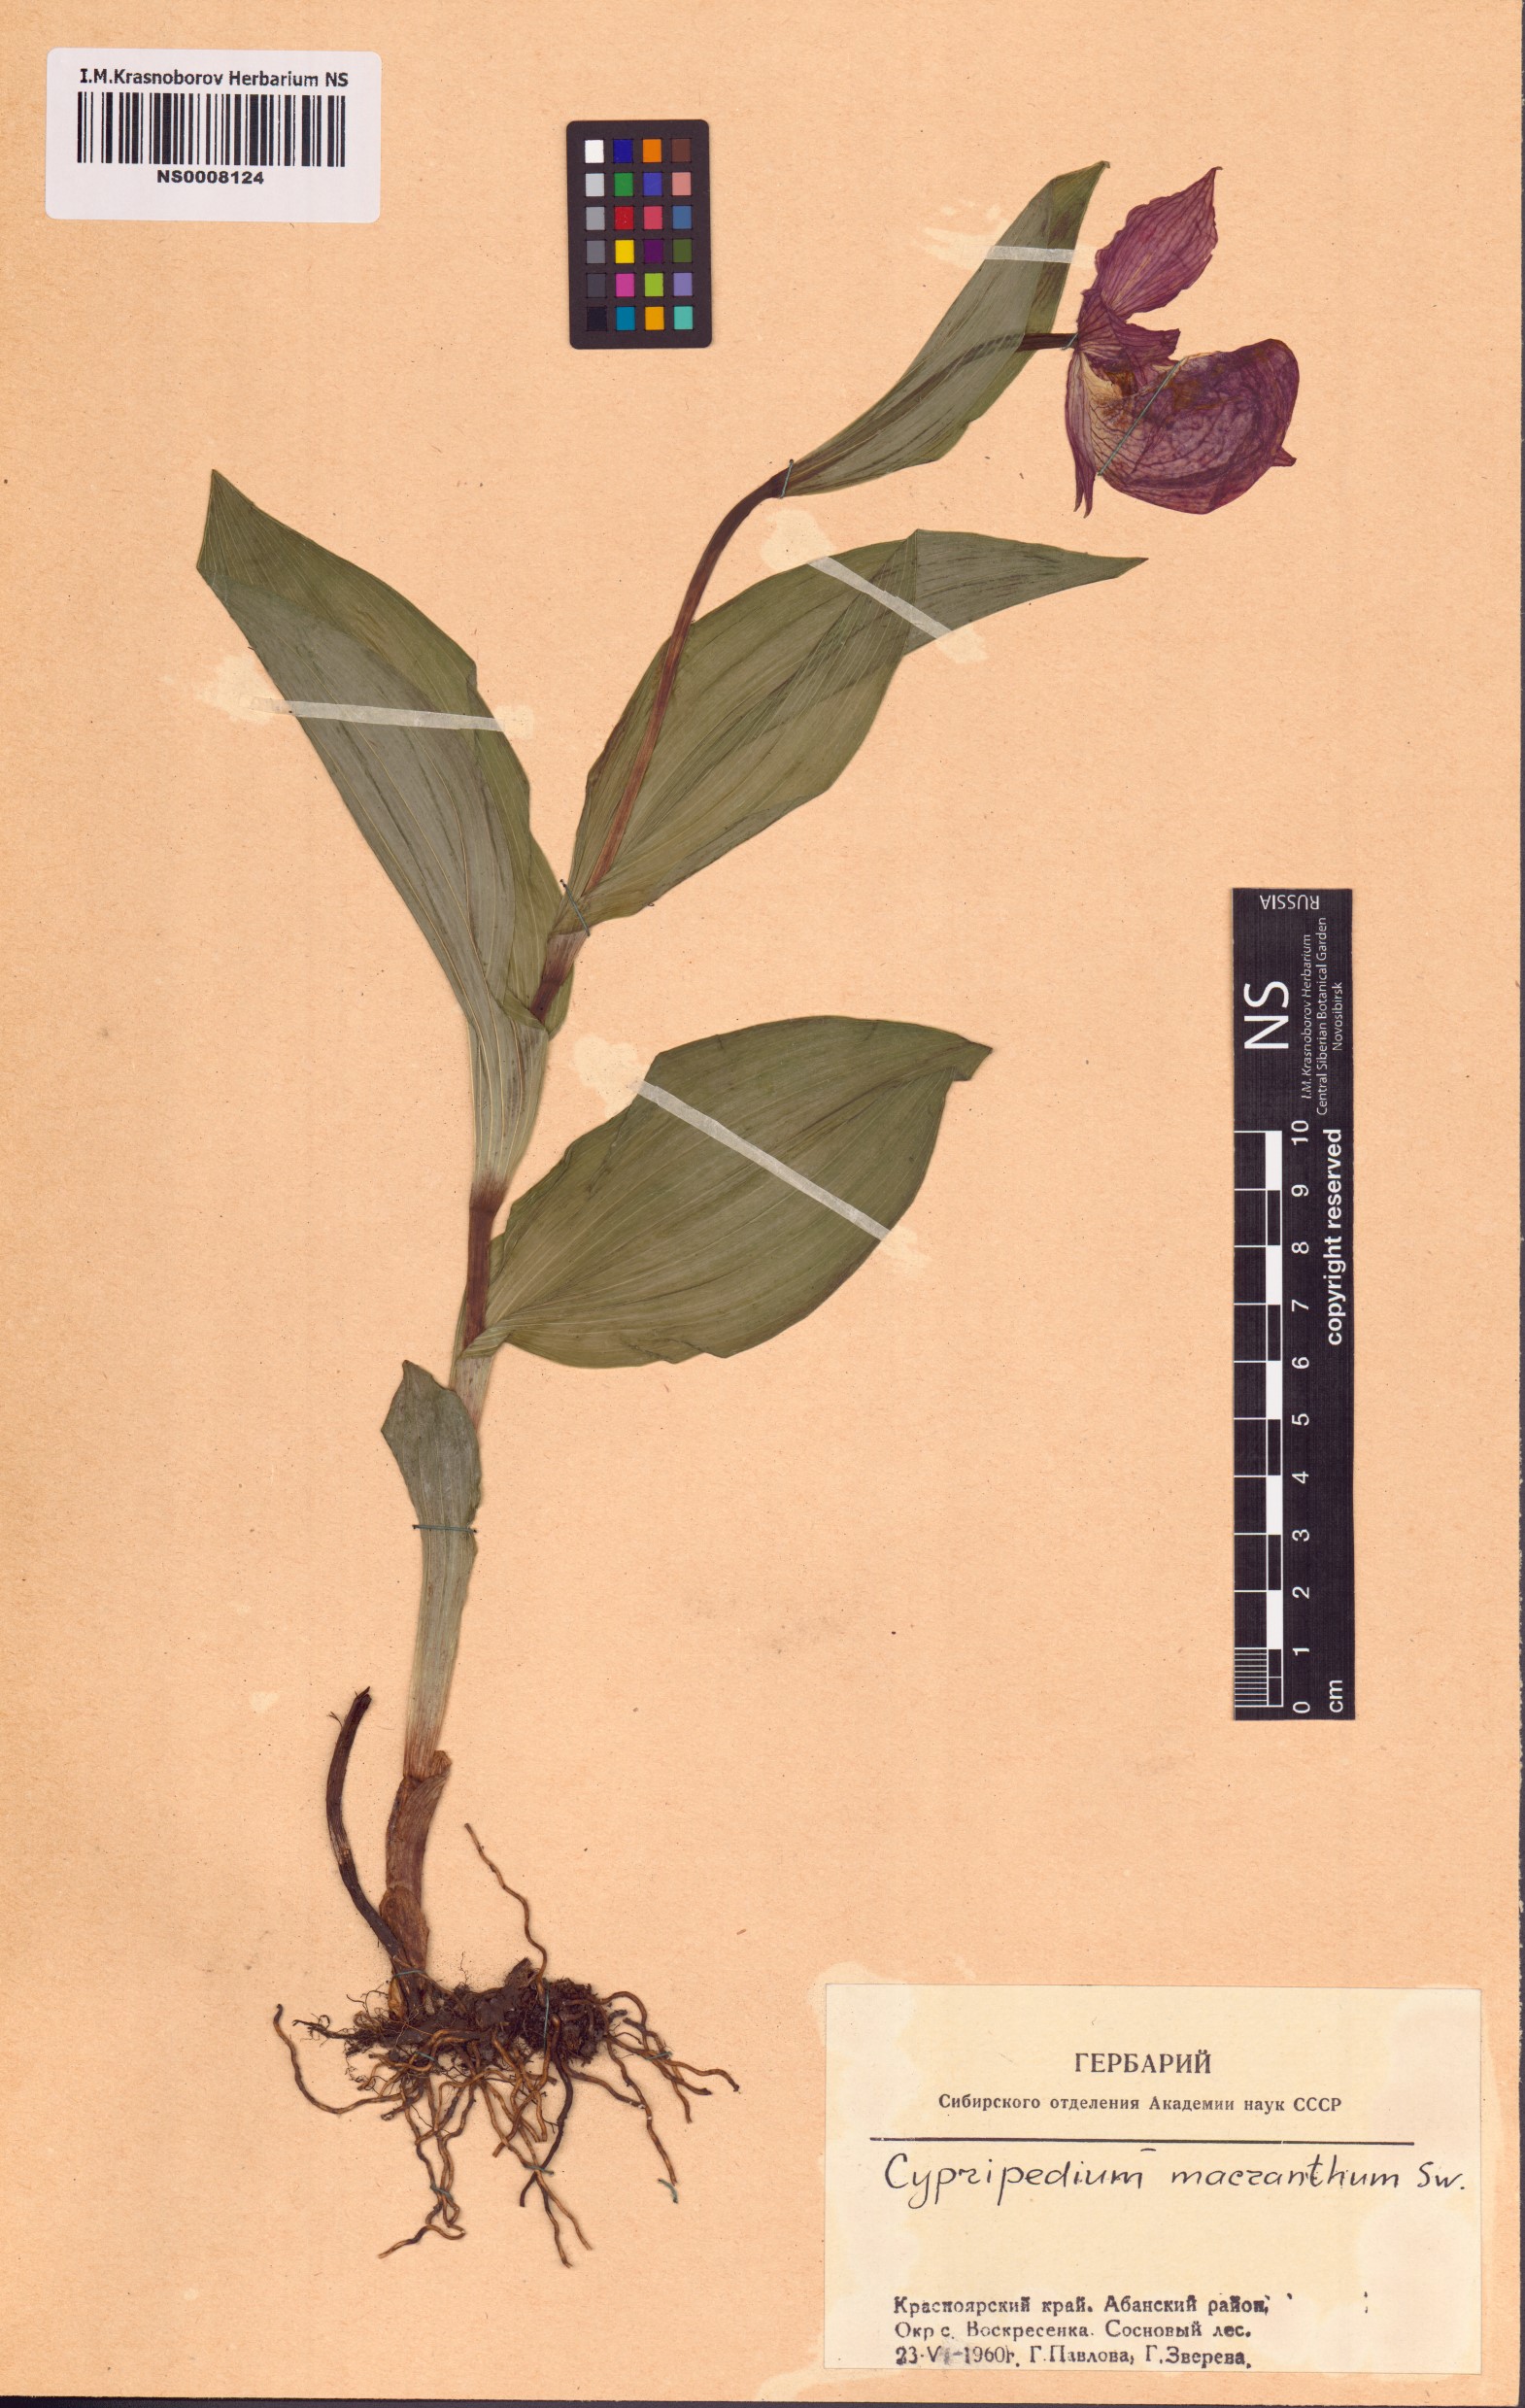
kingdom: Plantae
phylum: Tracheophyta
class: Liliopsida
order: Asparagales
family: Orchidaceae
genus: Cypripedium
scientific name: Cypripedium macranthos
